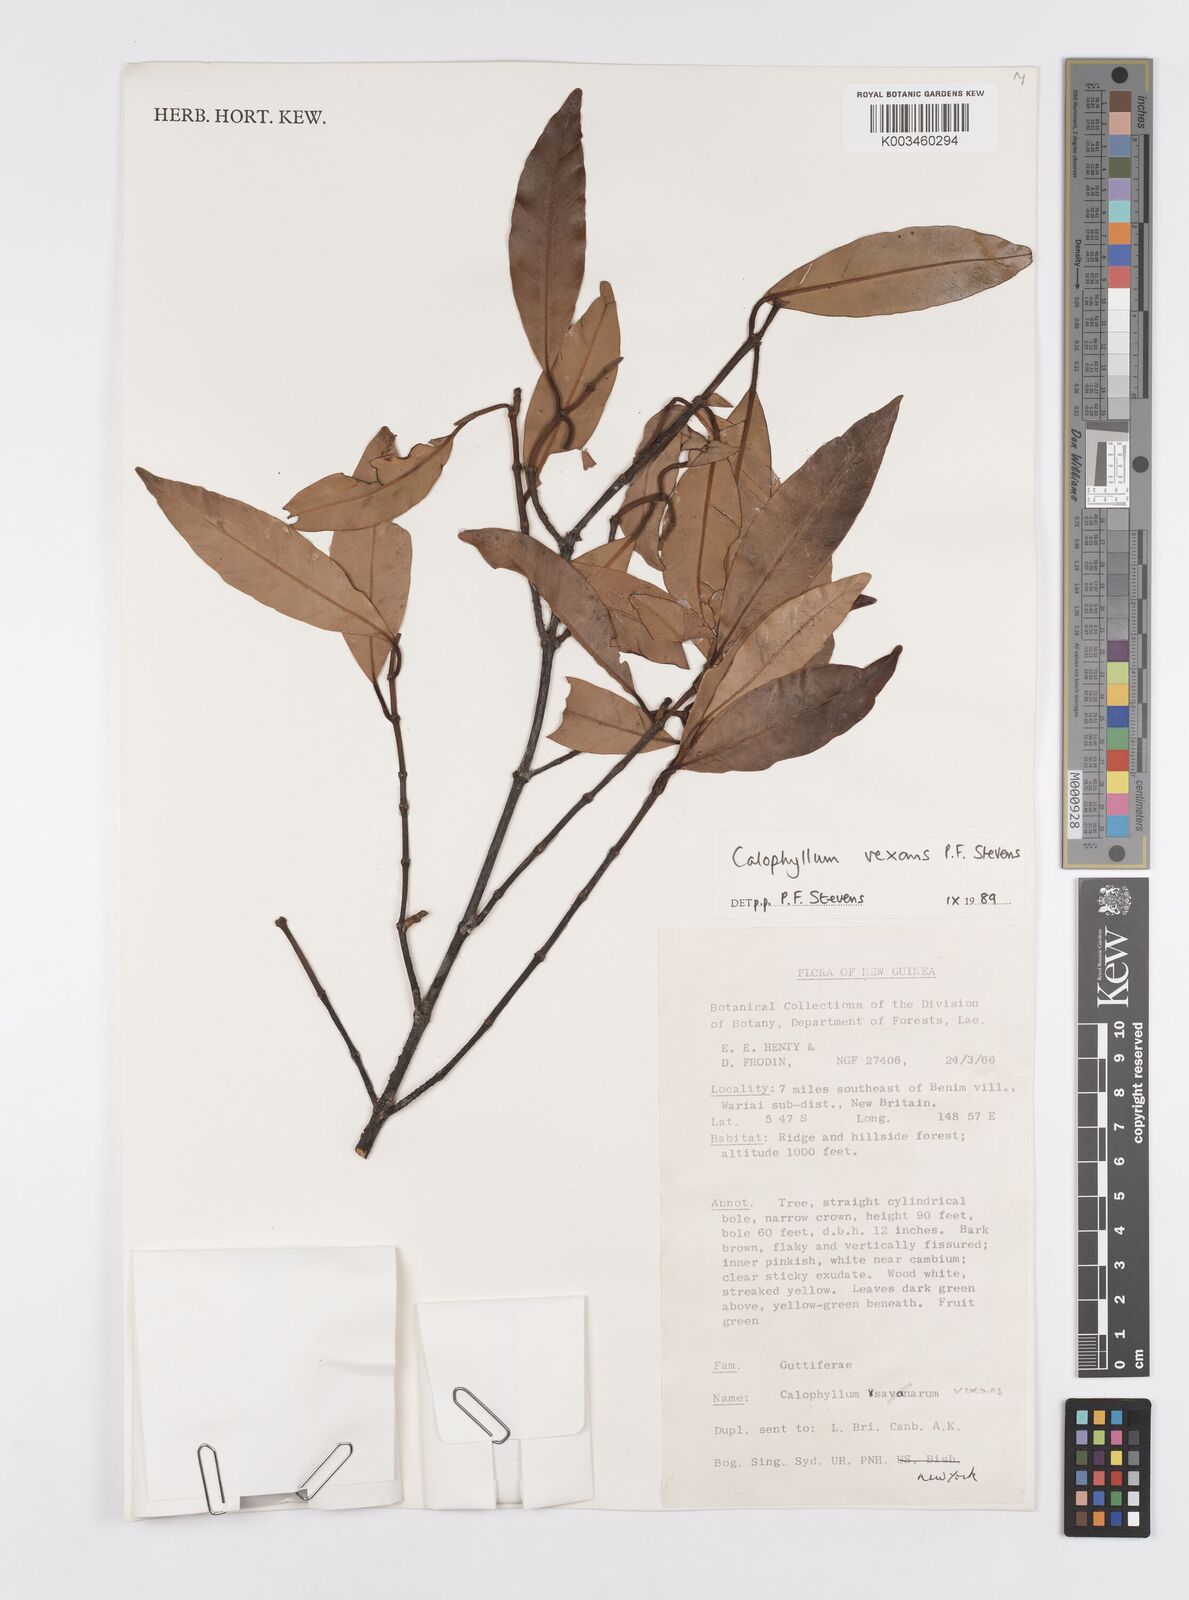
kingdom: Plantae
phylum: Tracheophyta
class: Magnoliopsida
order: Malpighiales
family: Calophyllaceae
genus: Calophyllum
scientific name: Calophyllum vexans
